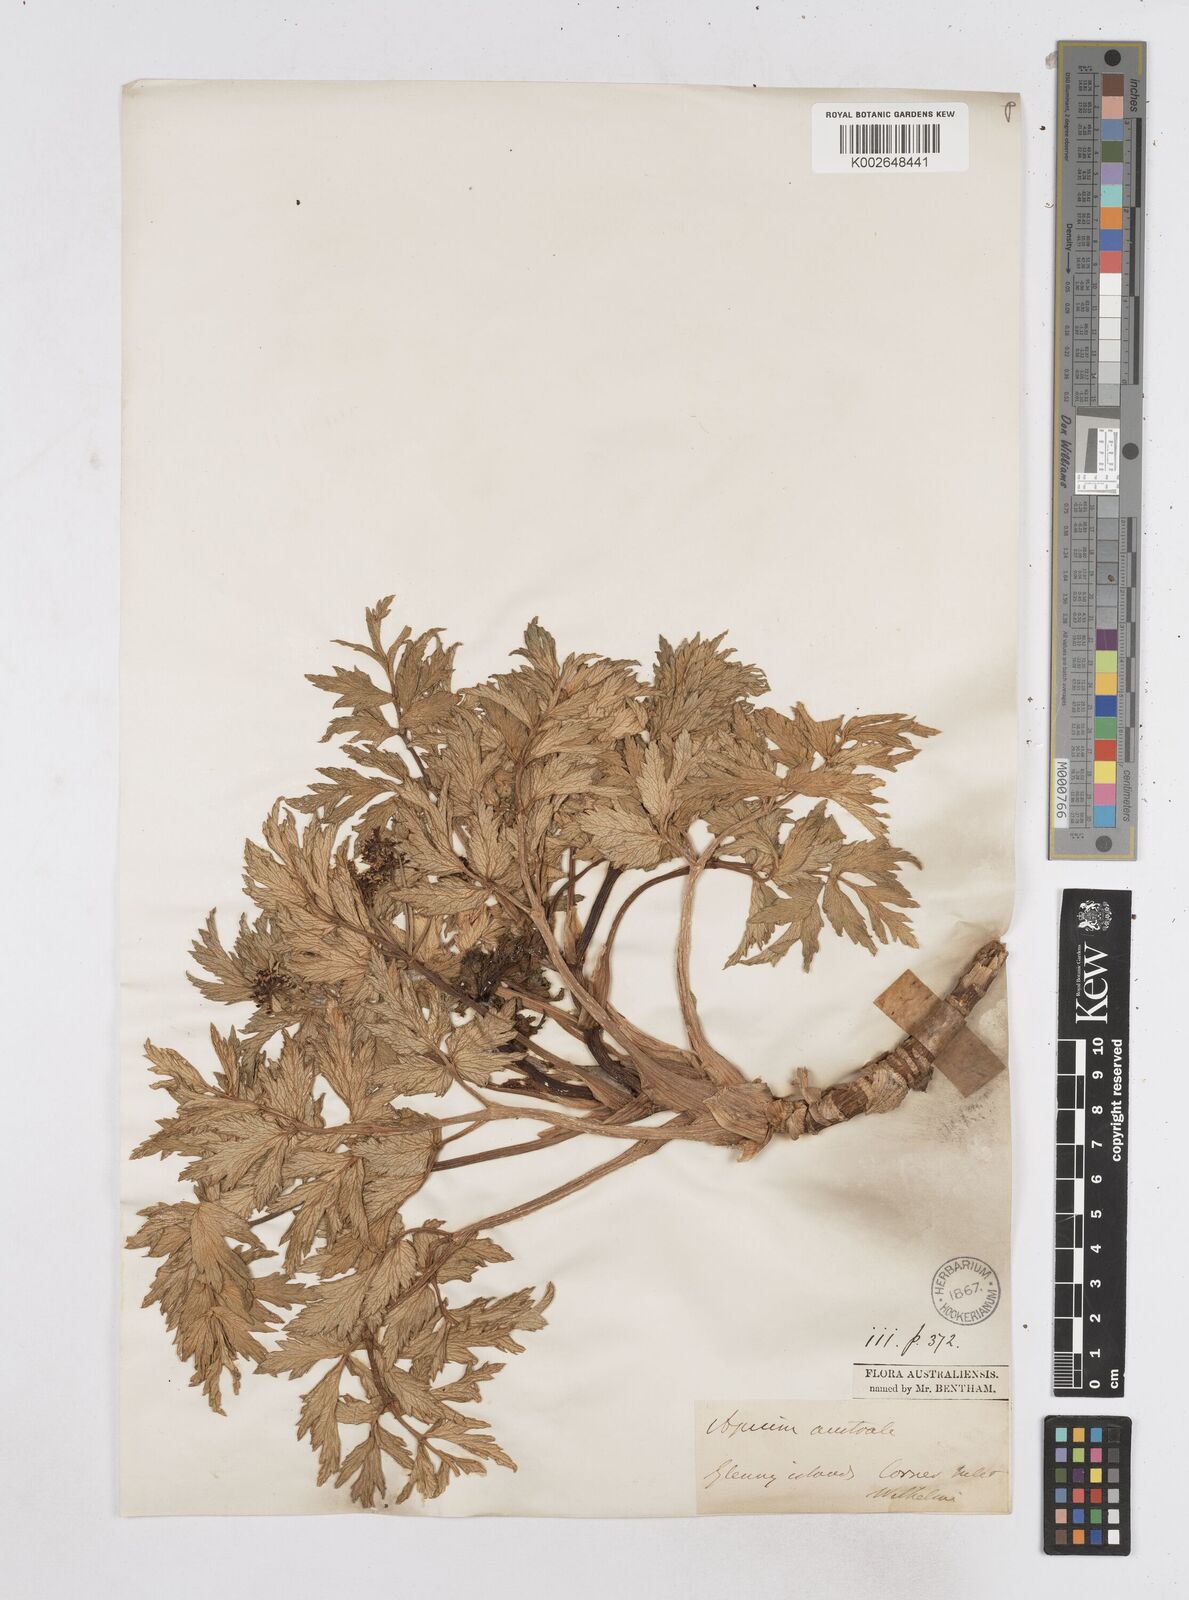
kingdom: Plantae
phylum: Tracheophyta
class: Magnoliopsida
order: Apiales
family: Apiaceae
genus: Apium
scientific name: Apium insulare
